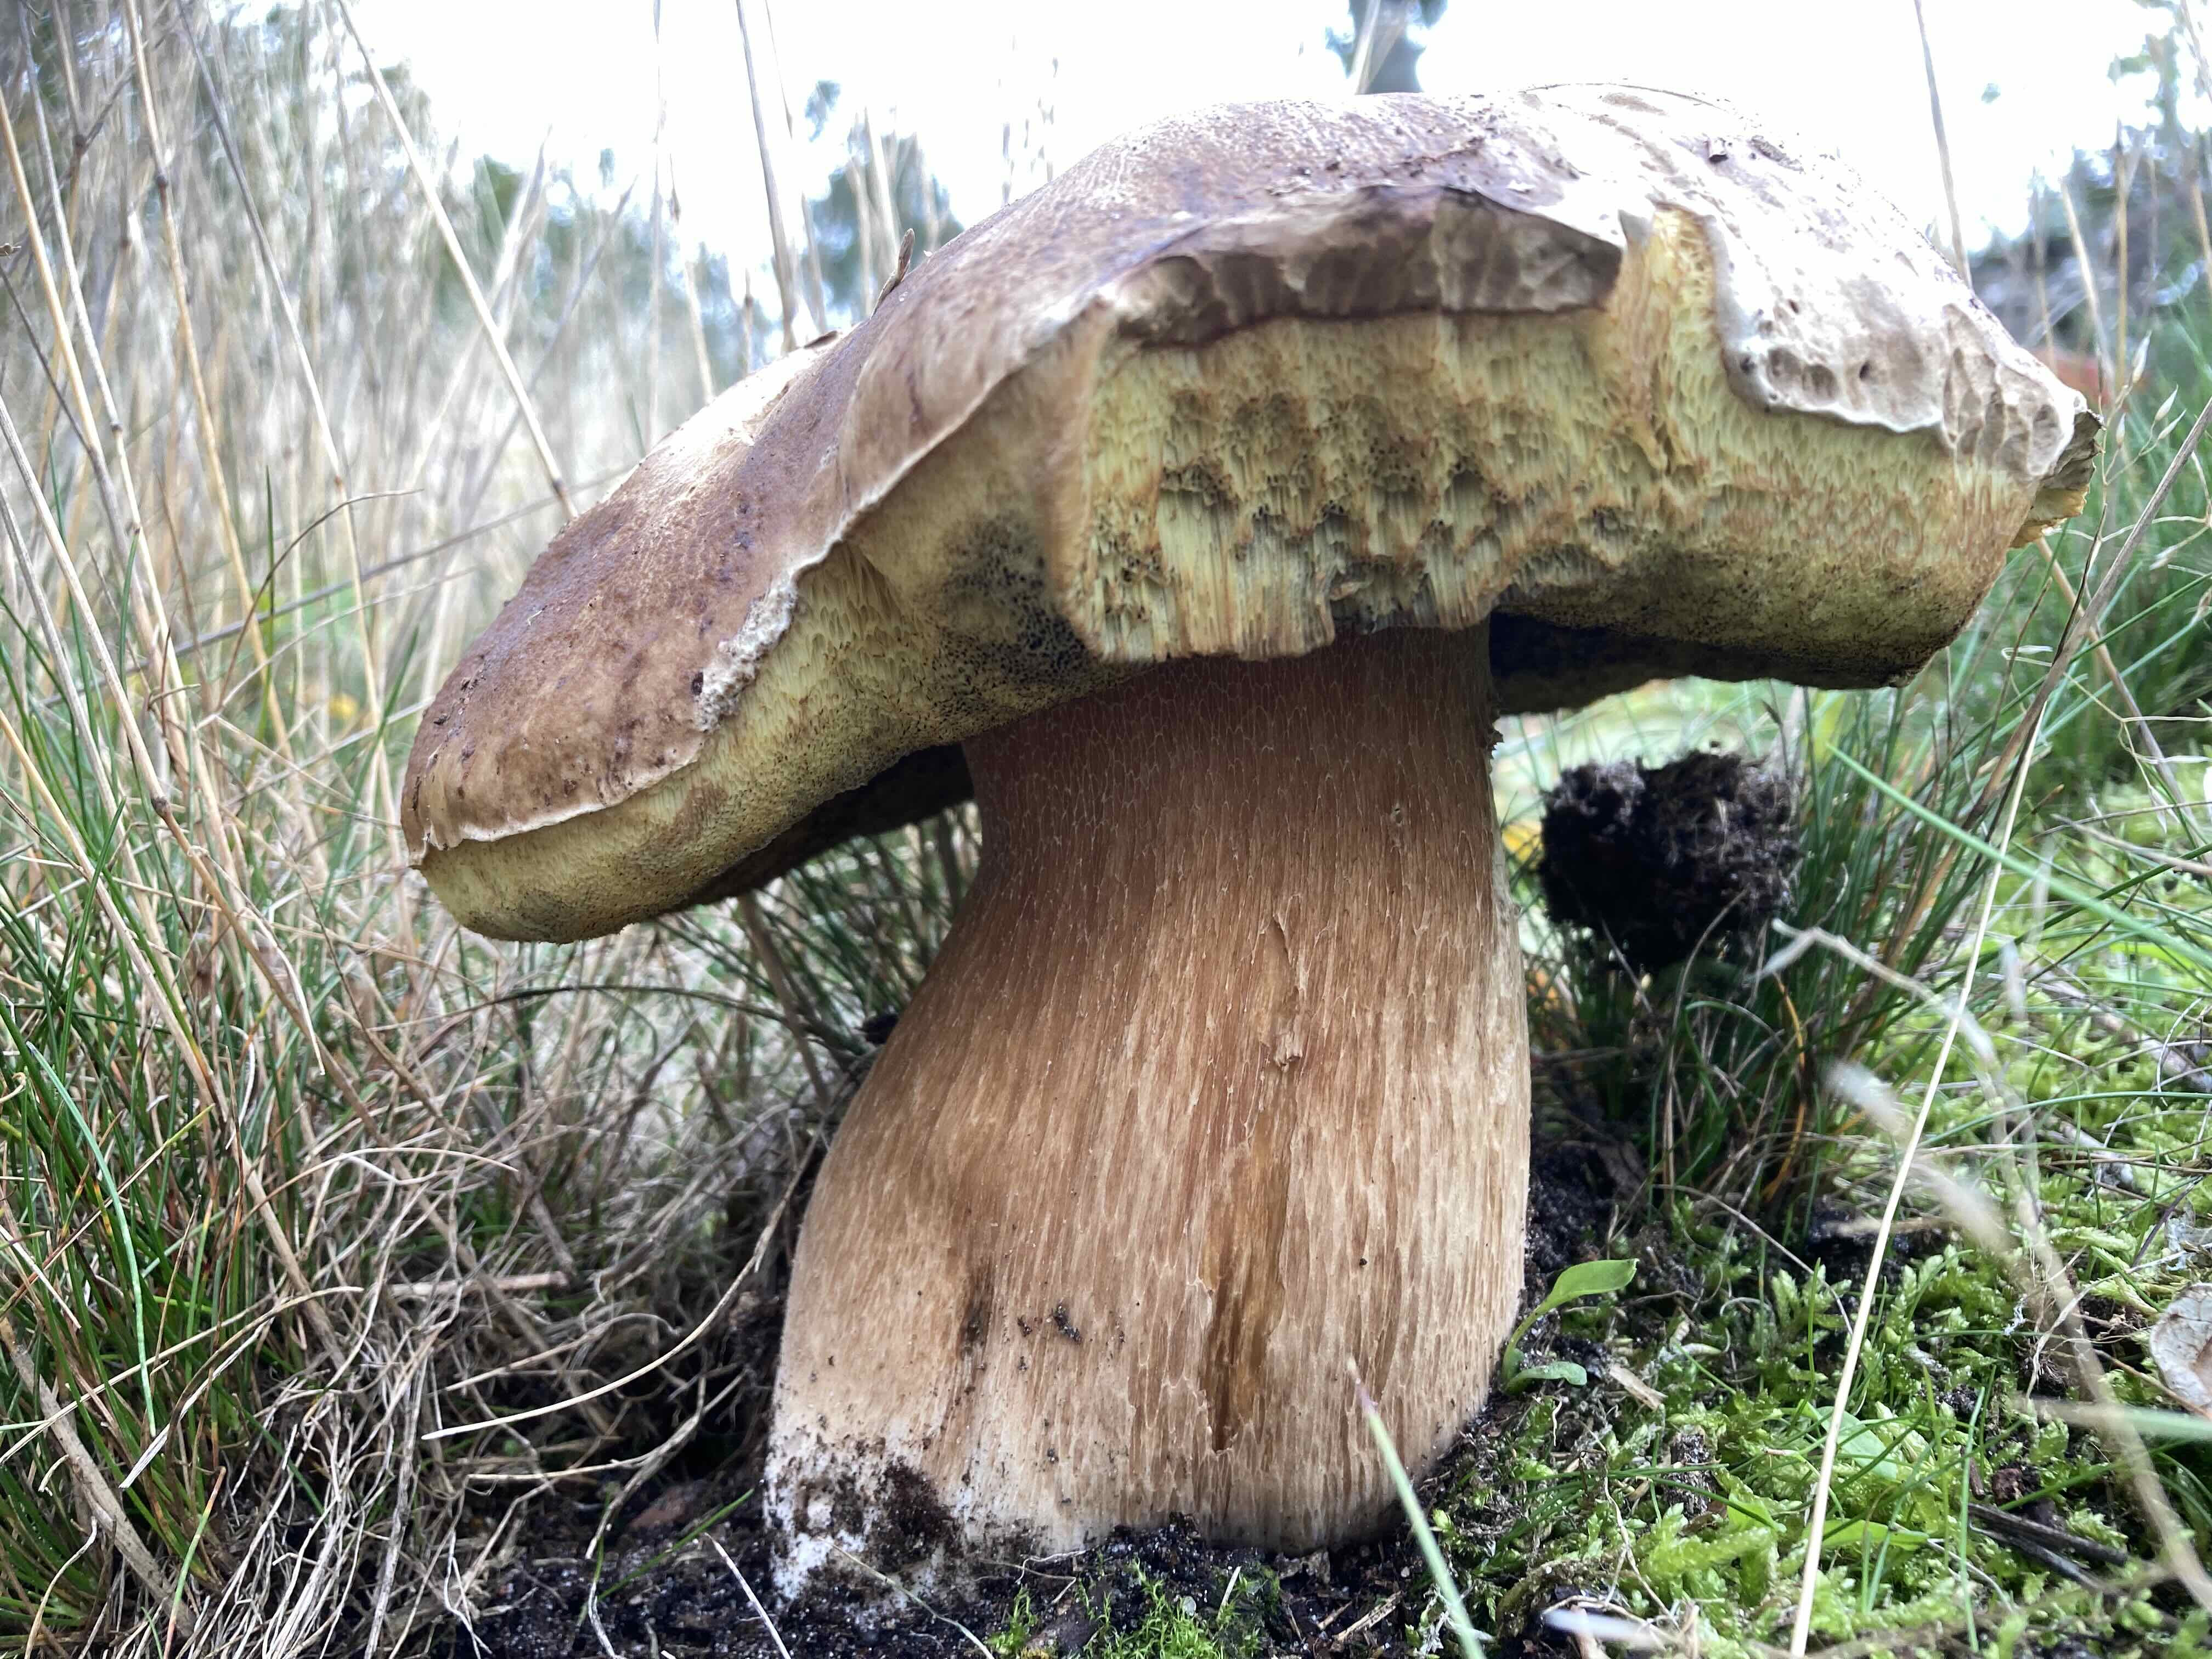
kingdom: Fungi
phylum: Basidiomycota
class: Agaricomycetes
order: Boletales
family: Boletaceae
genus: Boletus
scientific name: Boletus edulis
